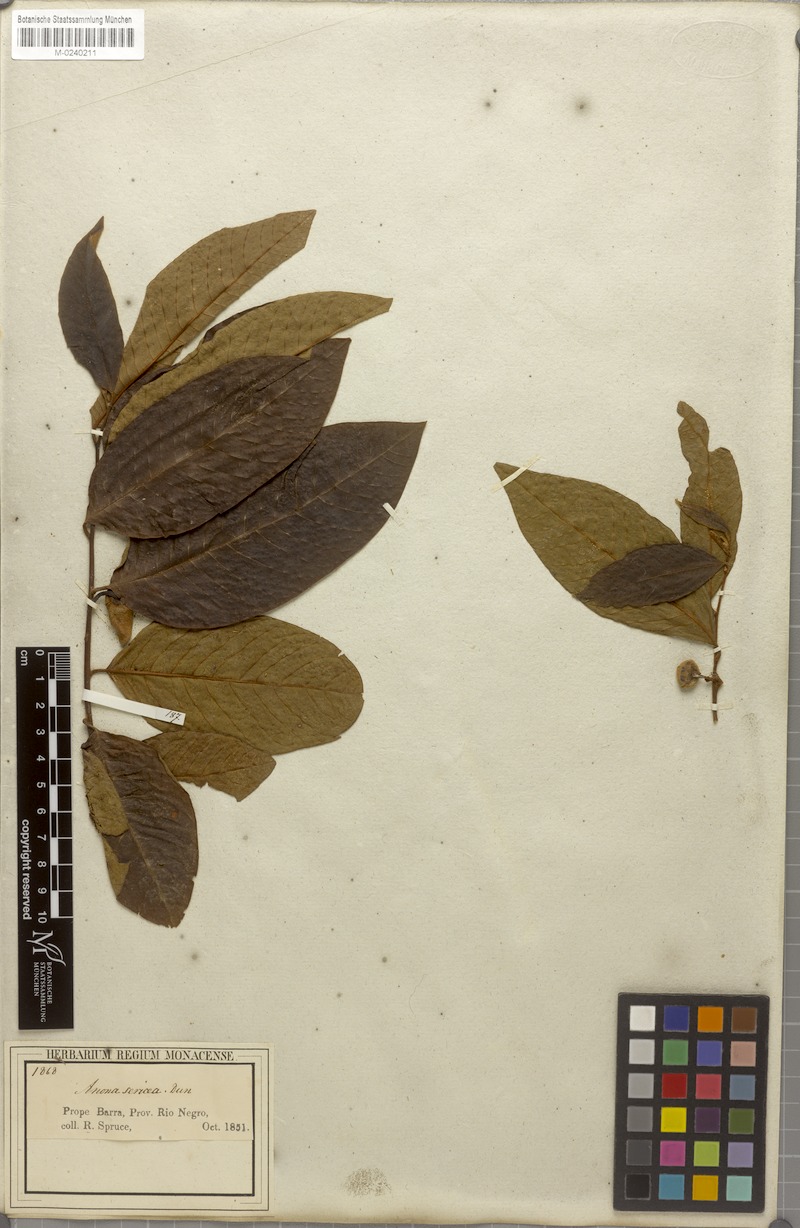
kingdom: Plantae
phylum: Tracheophyta
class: Magnoliopsida
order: Magnoliales
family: Annonaceae
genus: Annona
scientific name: Annona sericea
